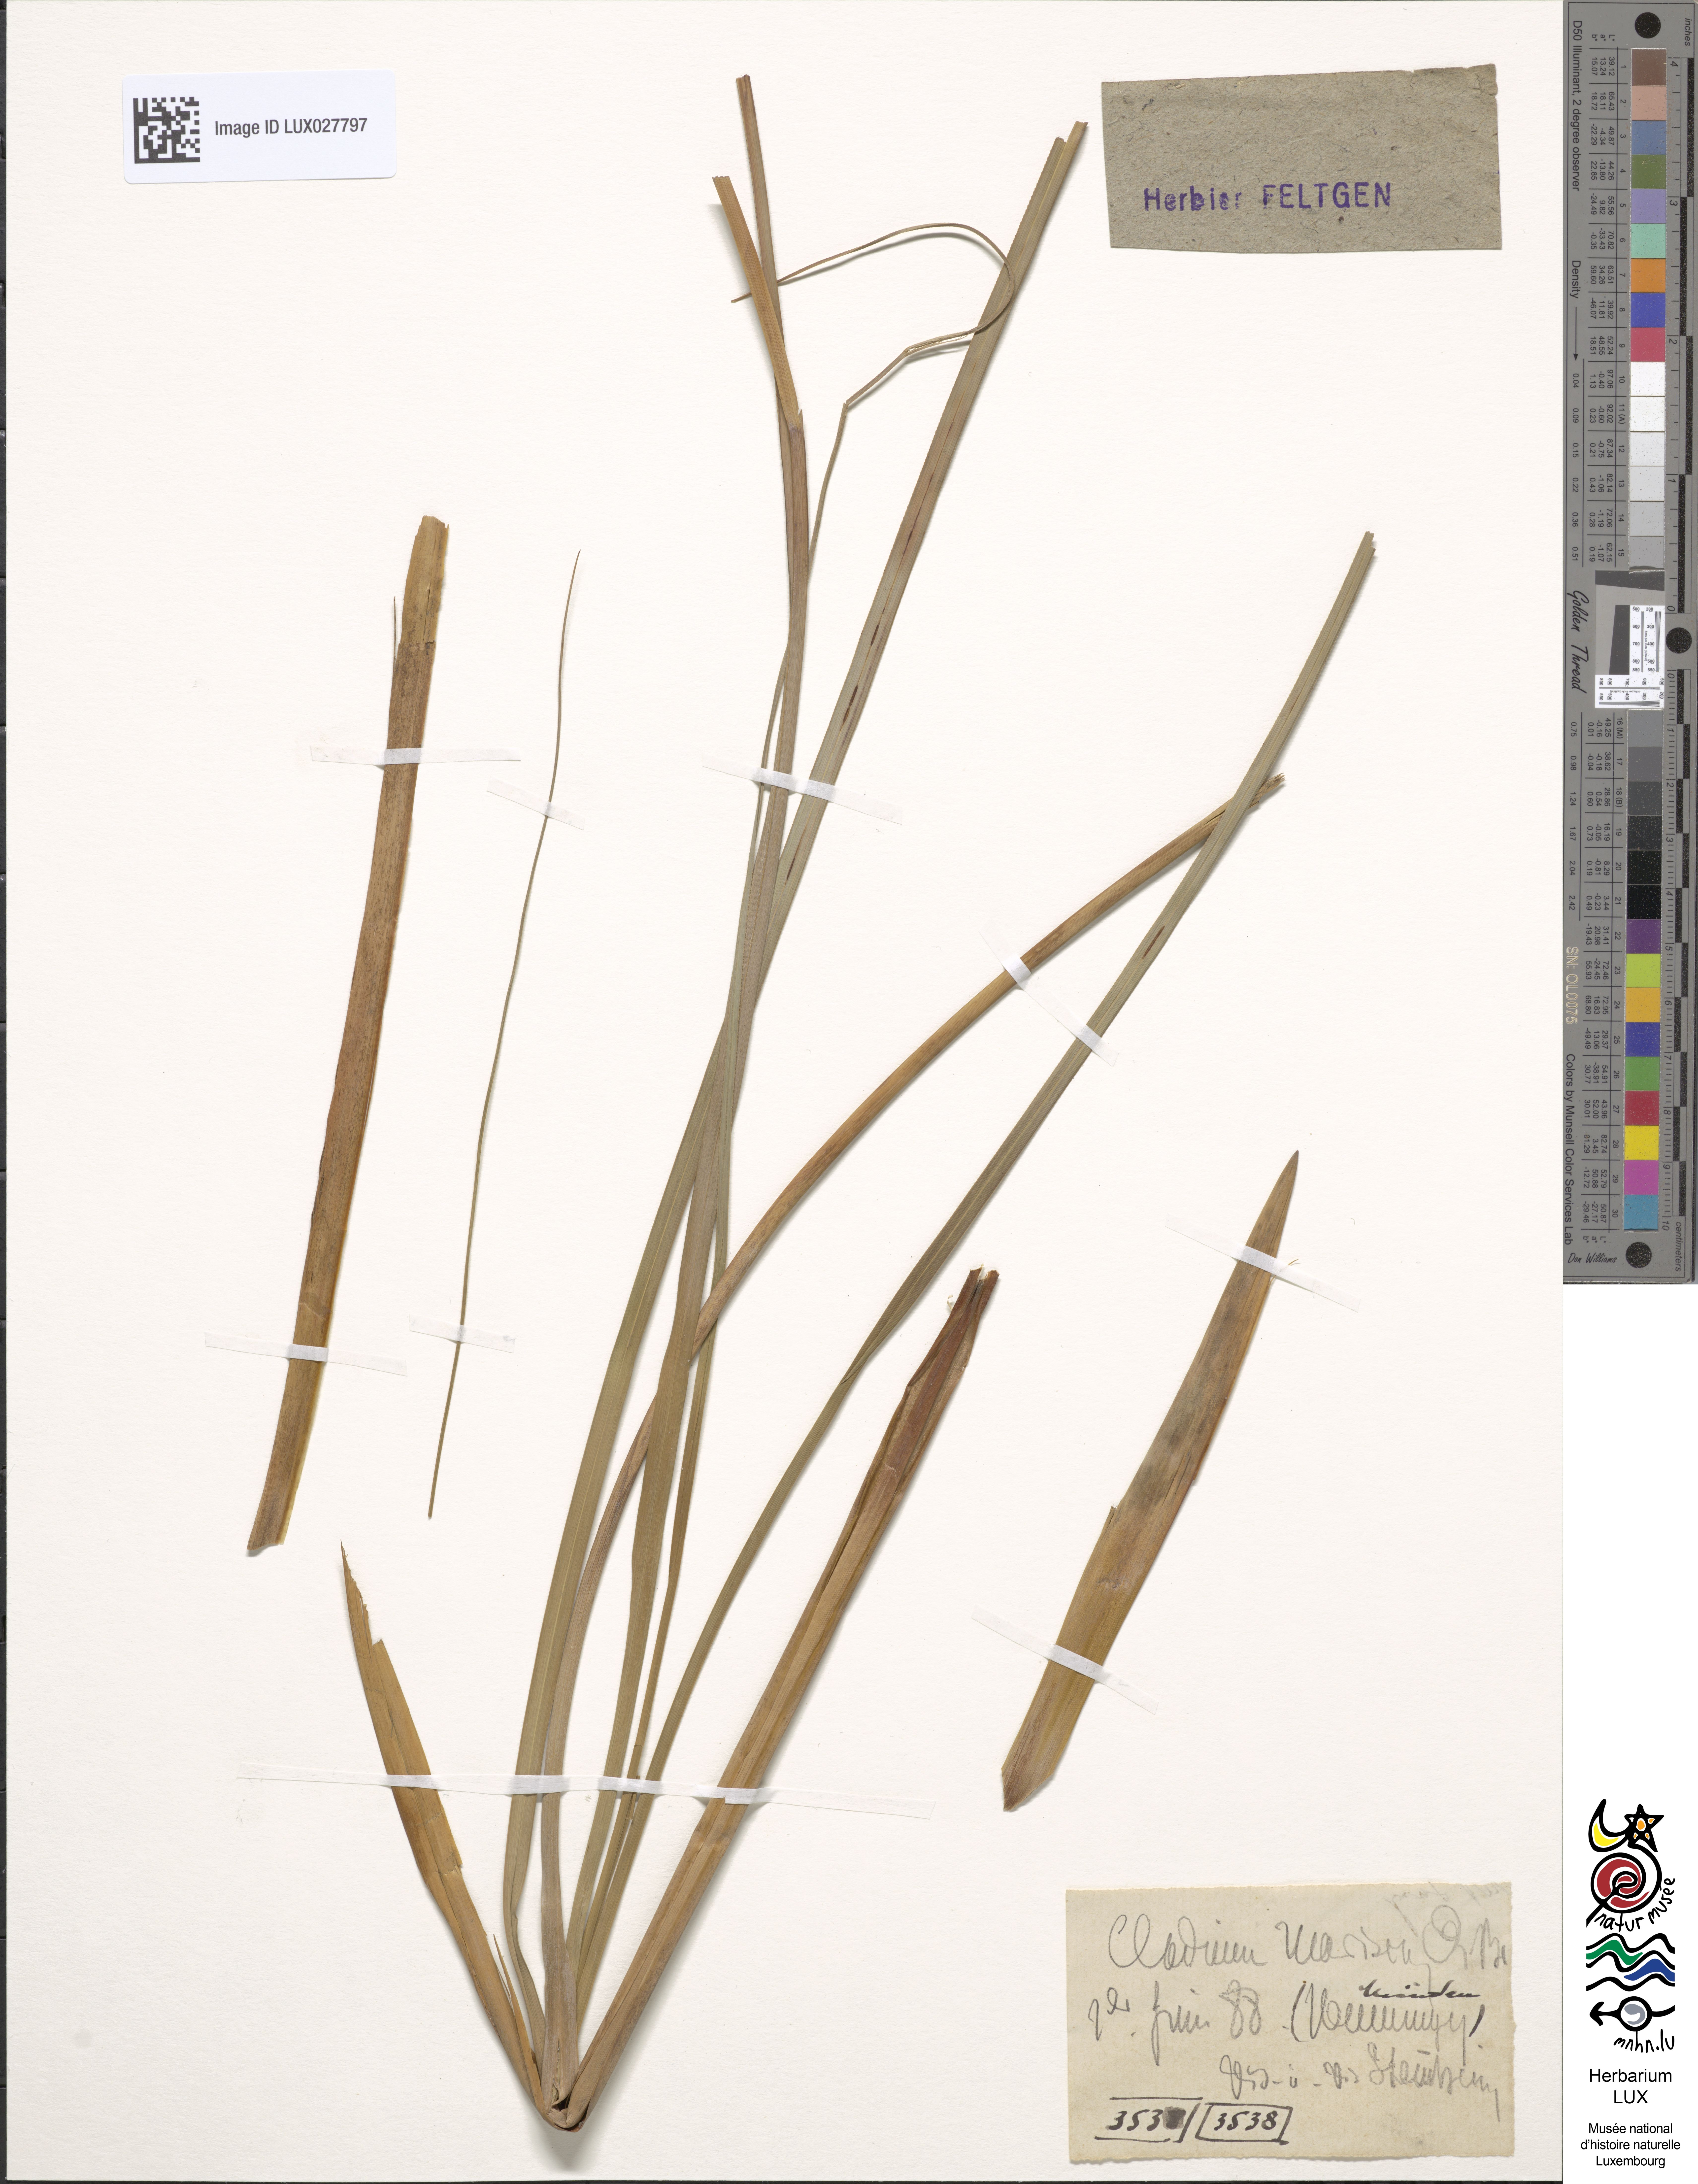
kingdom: Plantae
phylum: Tracheophyta
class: Liliopsida
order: Poales
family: Cyperaceae
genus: Cladium
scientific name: Cladium mariscus
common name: Great fen-sedge
